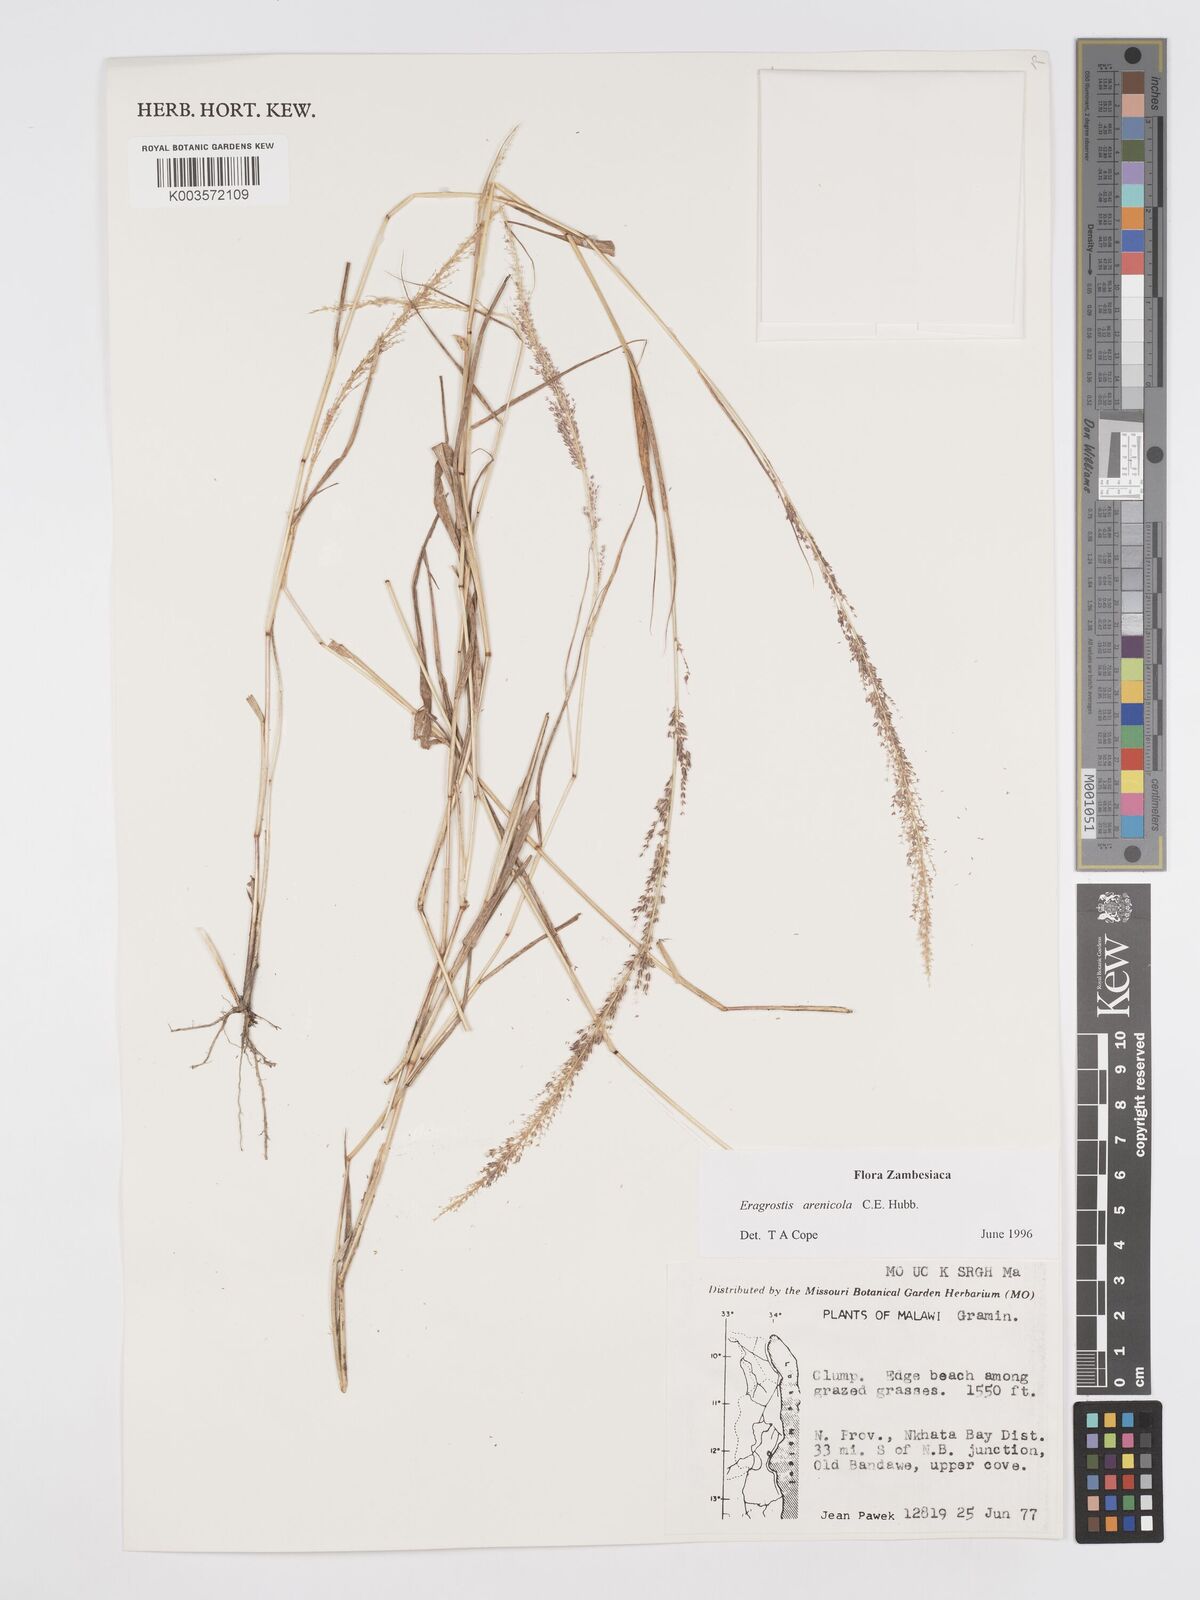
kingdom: Plantae
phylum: Tracheophyta
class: Liliopsida
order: Poales
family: Poaceae
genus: Eragrostis
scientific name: Eragrostis arenicola
